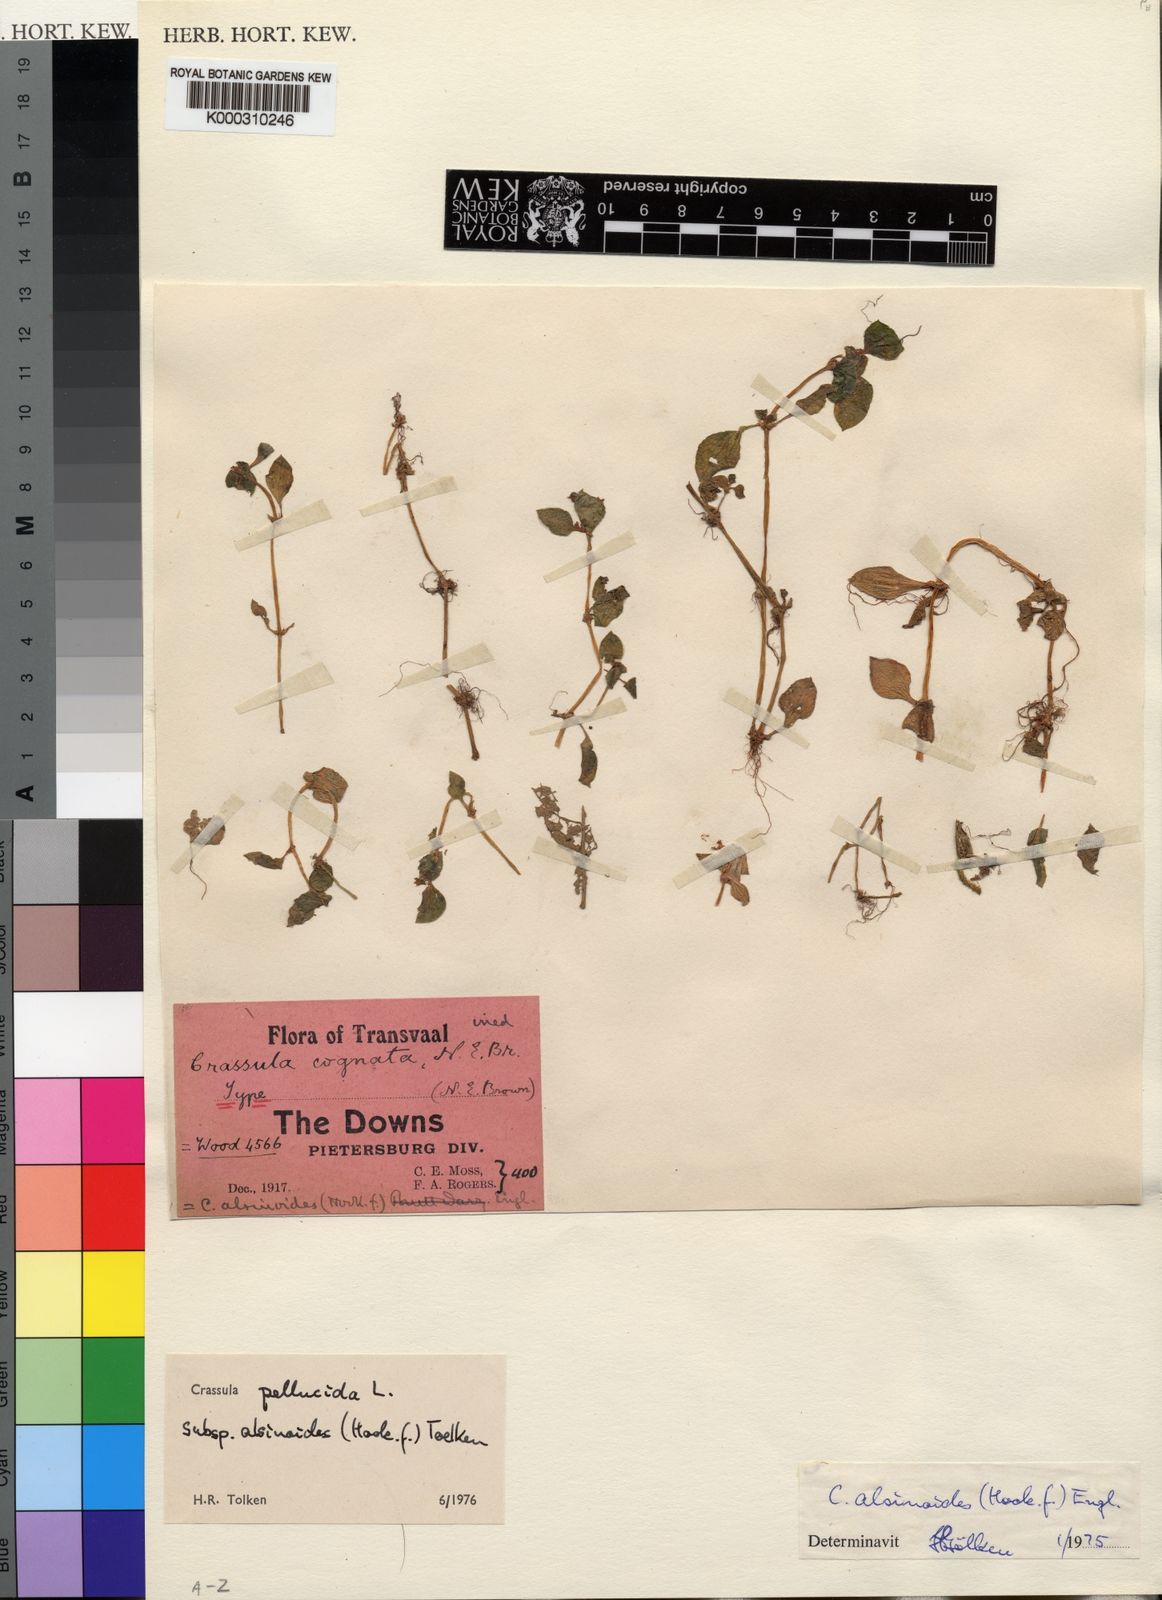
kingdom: Plantae
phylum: Tracheophyta
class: Magnoliopsida
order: Saxifragales
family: Crassulaceae
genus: Crassula
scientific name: Crassula pellucida
